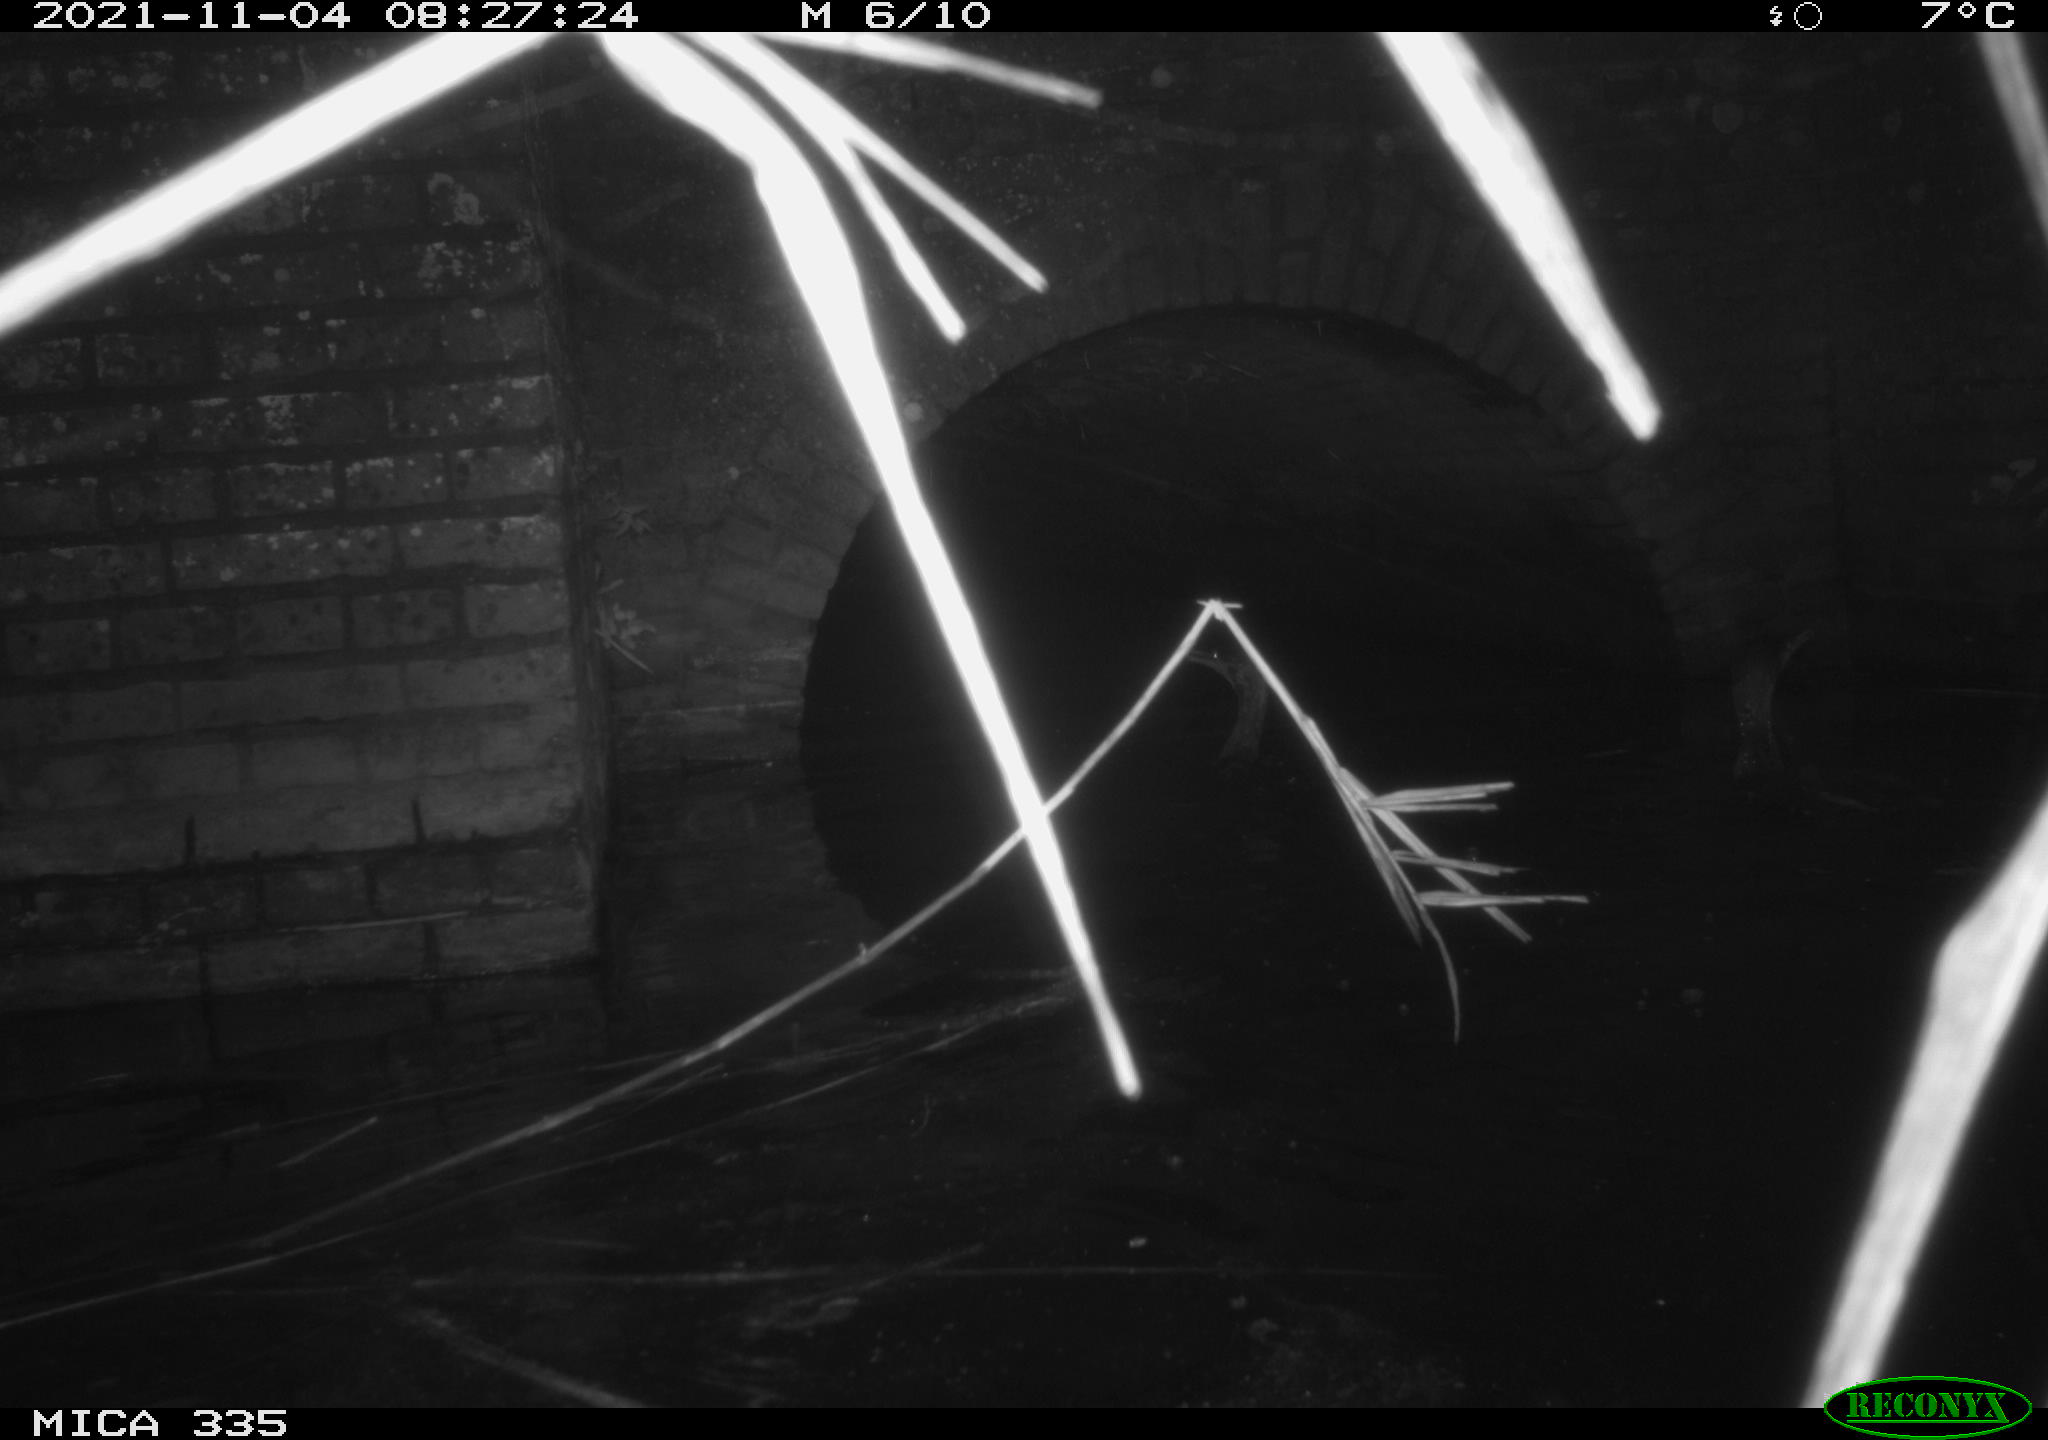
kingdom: Animalia
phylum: Chordata
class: Aves
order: Suliformes
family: Phalacrocoracidae
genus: Phalacrocorax
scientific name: Phalacrocorax carbo
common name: Great cormorant
